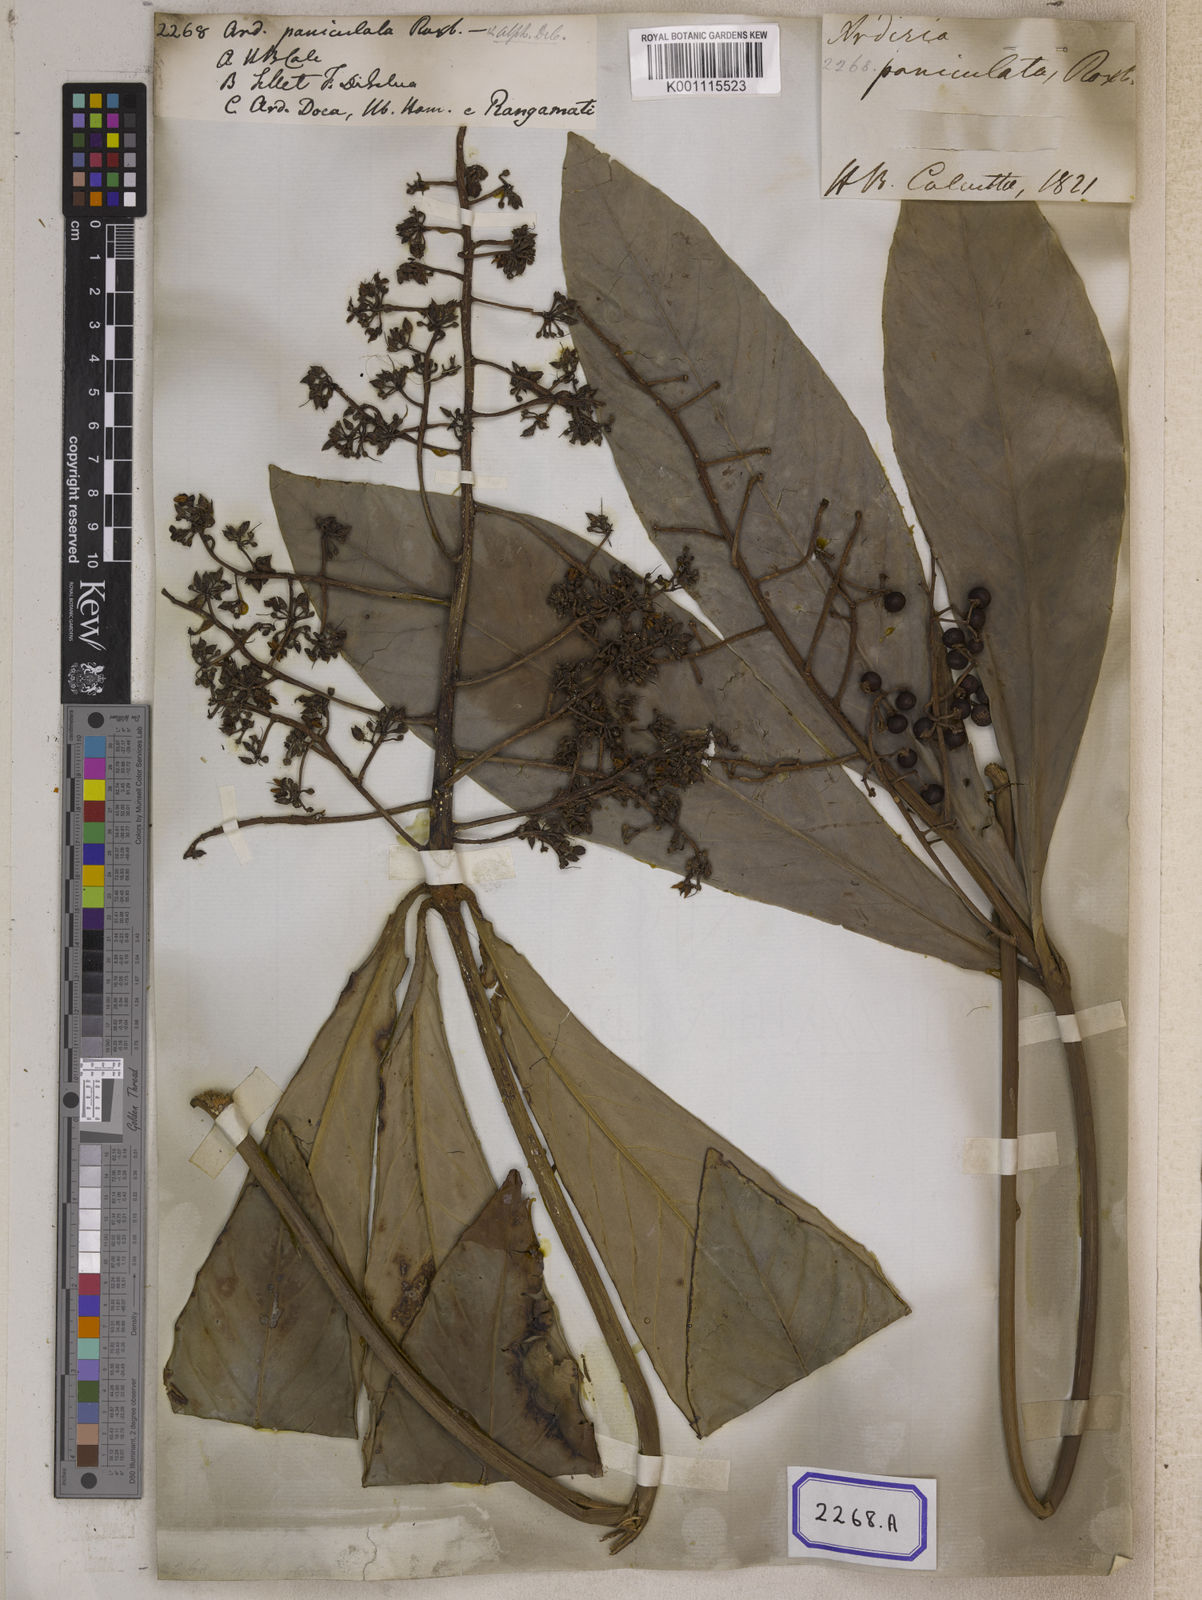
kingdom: Plantae
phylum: Tracheophyta
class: Magnoliopsida
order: Ericales
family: Primulaceae
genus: Ardisia
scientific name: Ardisia colorata
